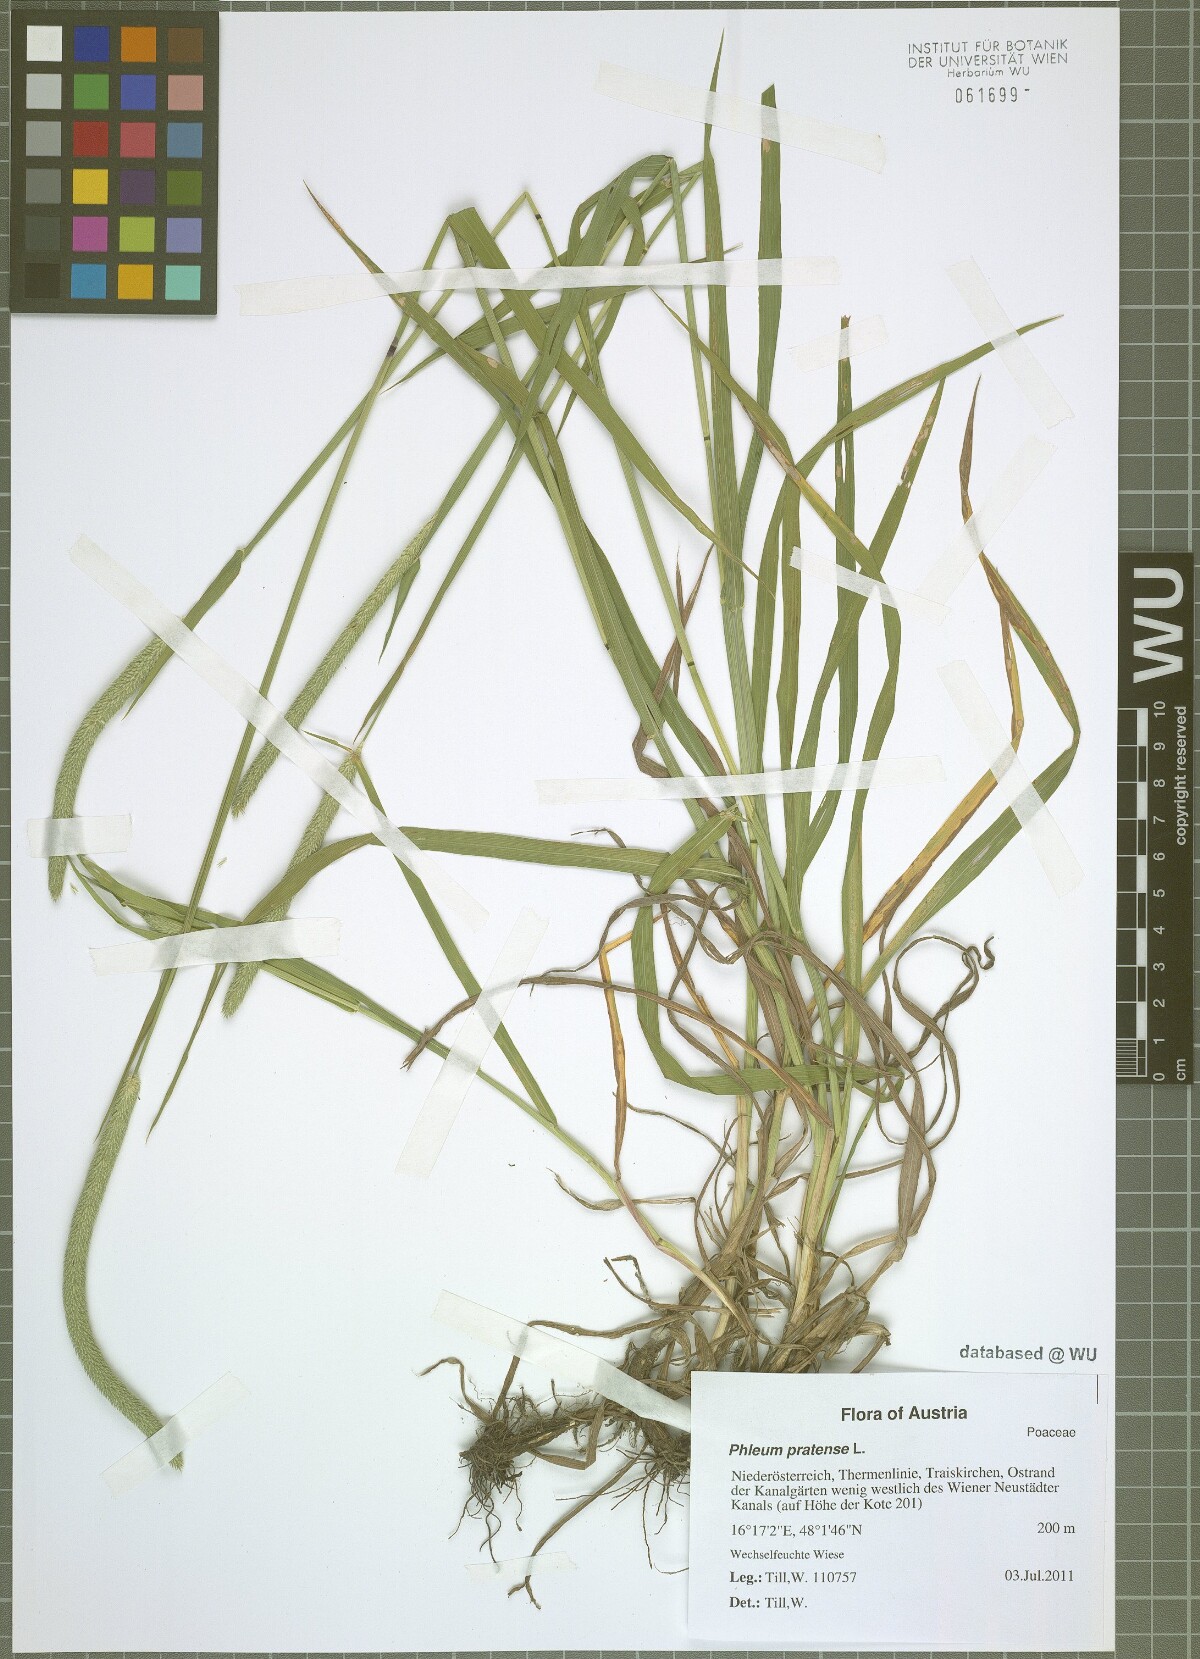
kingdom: Plantae
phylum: Tracheophyta
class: Liliopsida
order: Poales
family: Poaceae
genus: Phleum
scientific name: Phleum pratense
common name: Timothy grass
